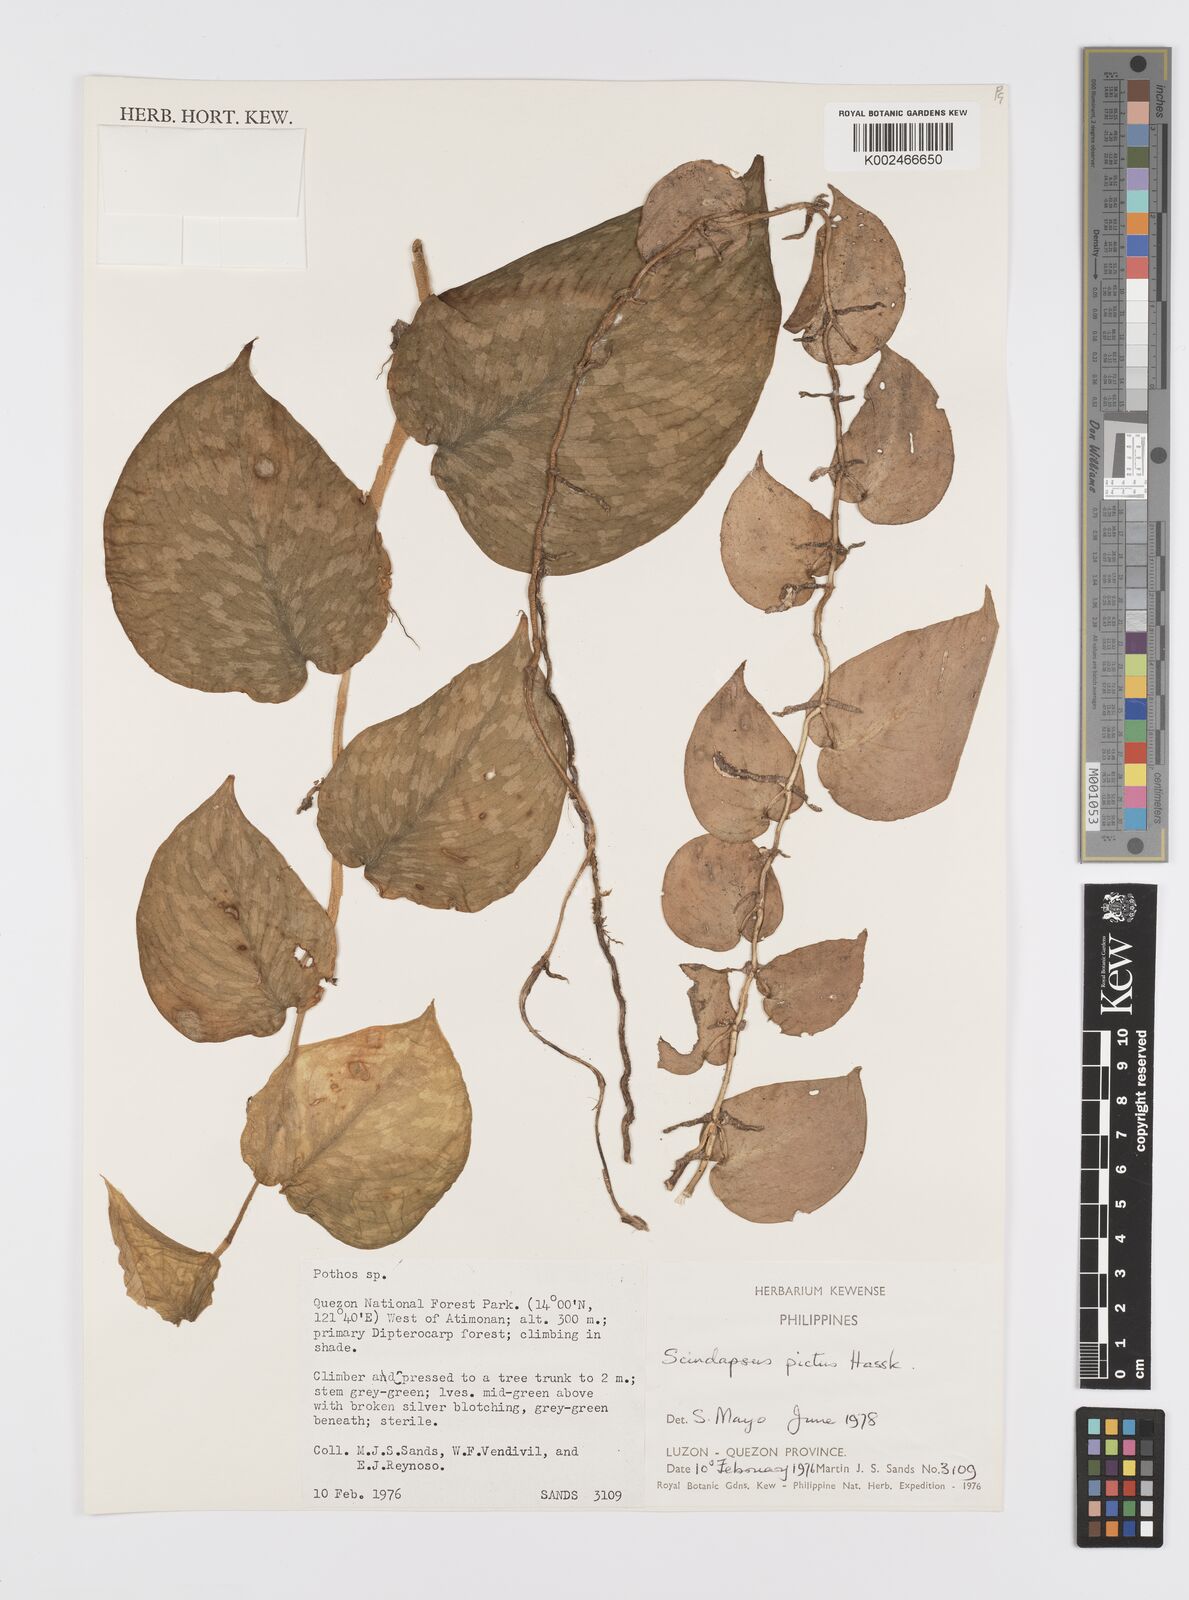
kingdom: Plantae
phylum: Tracheophyta
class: Liliopsida
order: Alismatales
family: Araceae
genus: Scindapsus
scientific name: Scindapsus pictus
